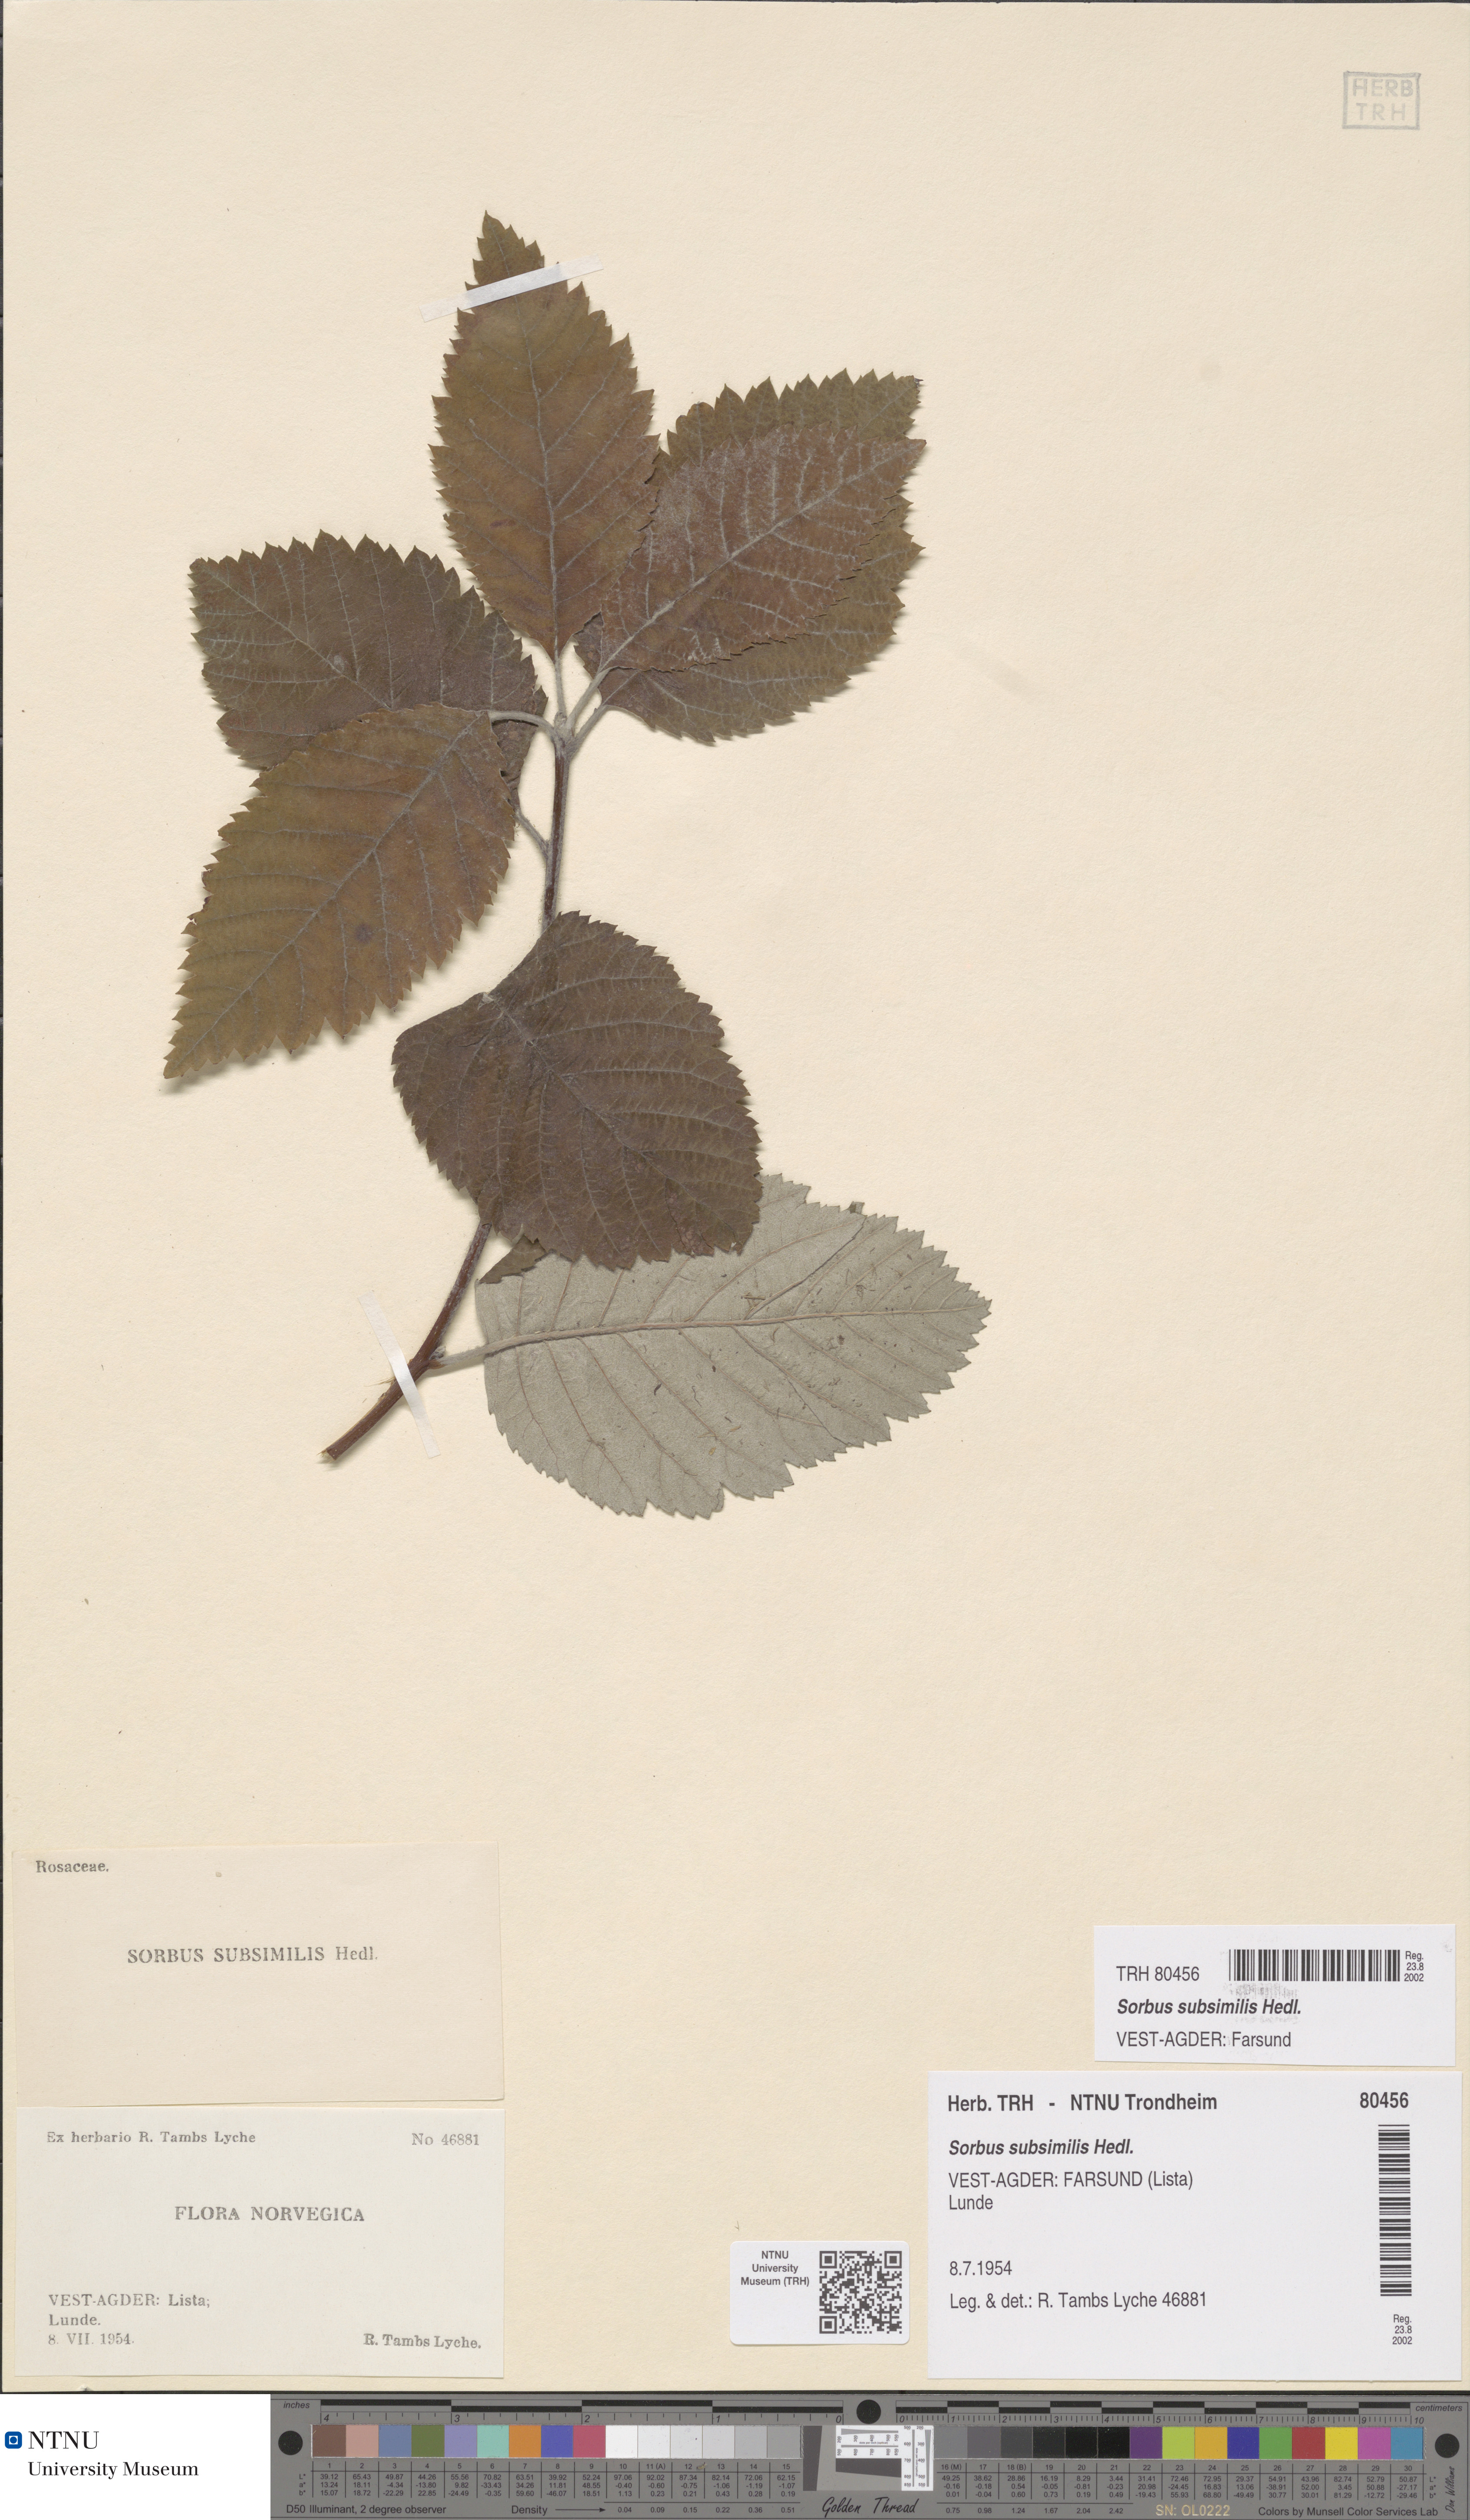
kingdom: Plantae
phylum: Tracheophyta
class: Magnoliopsida
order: Rosales
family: Rosaceae
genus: Hedlundia
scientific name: Hedlundia subsimilis
